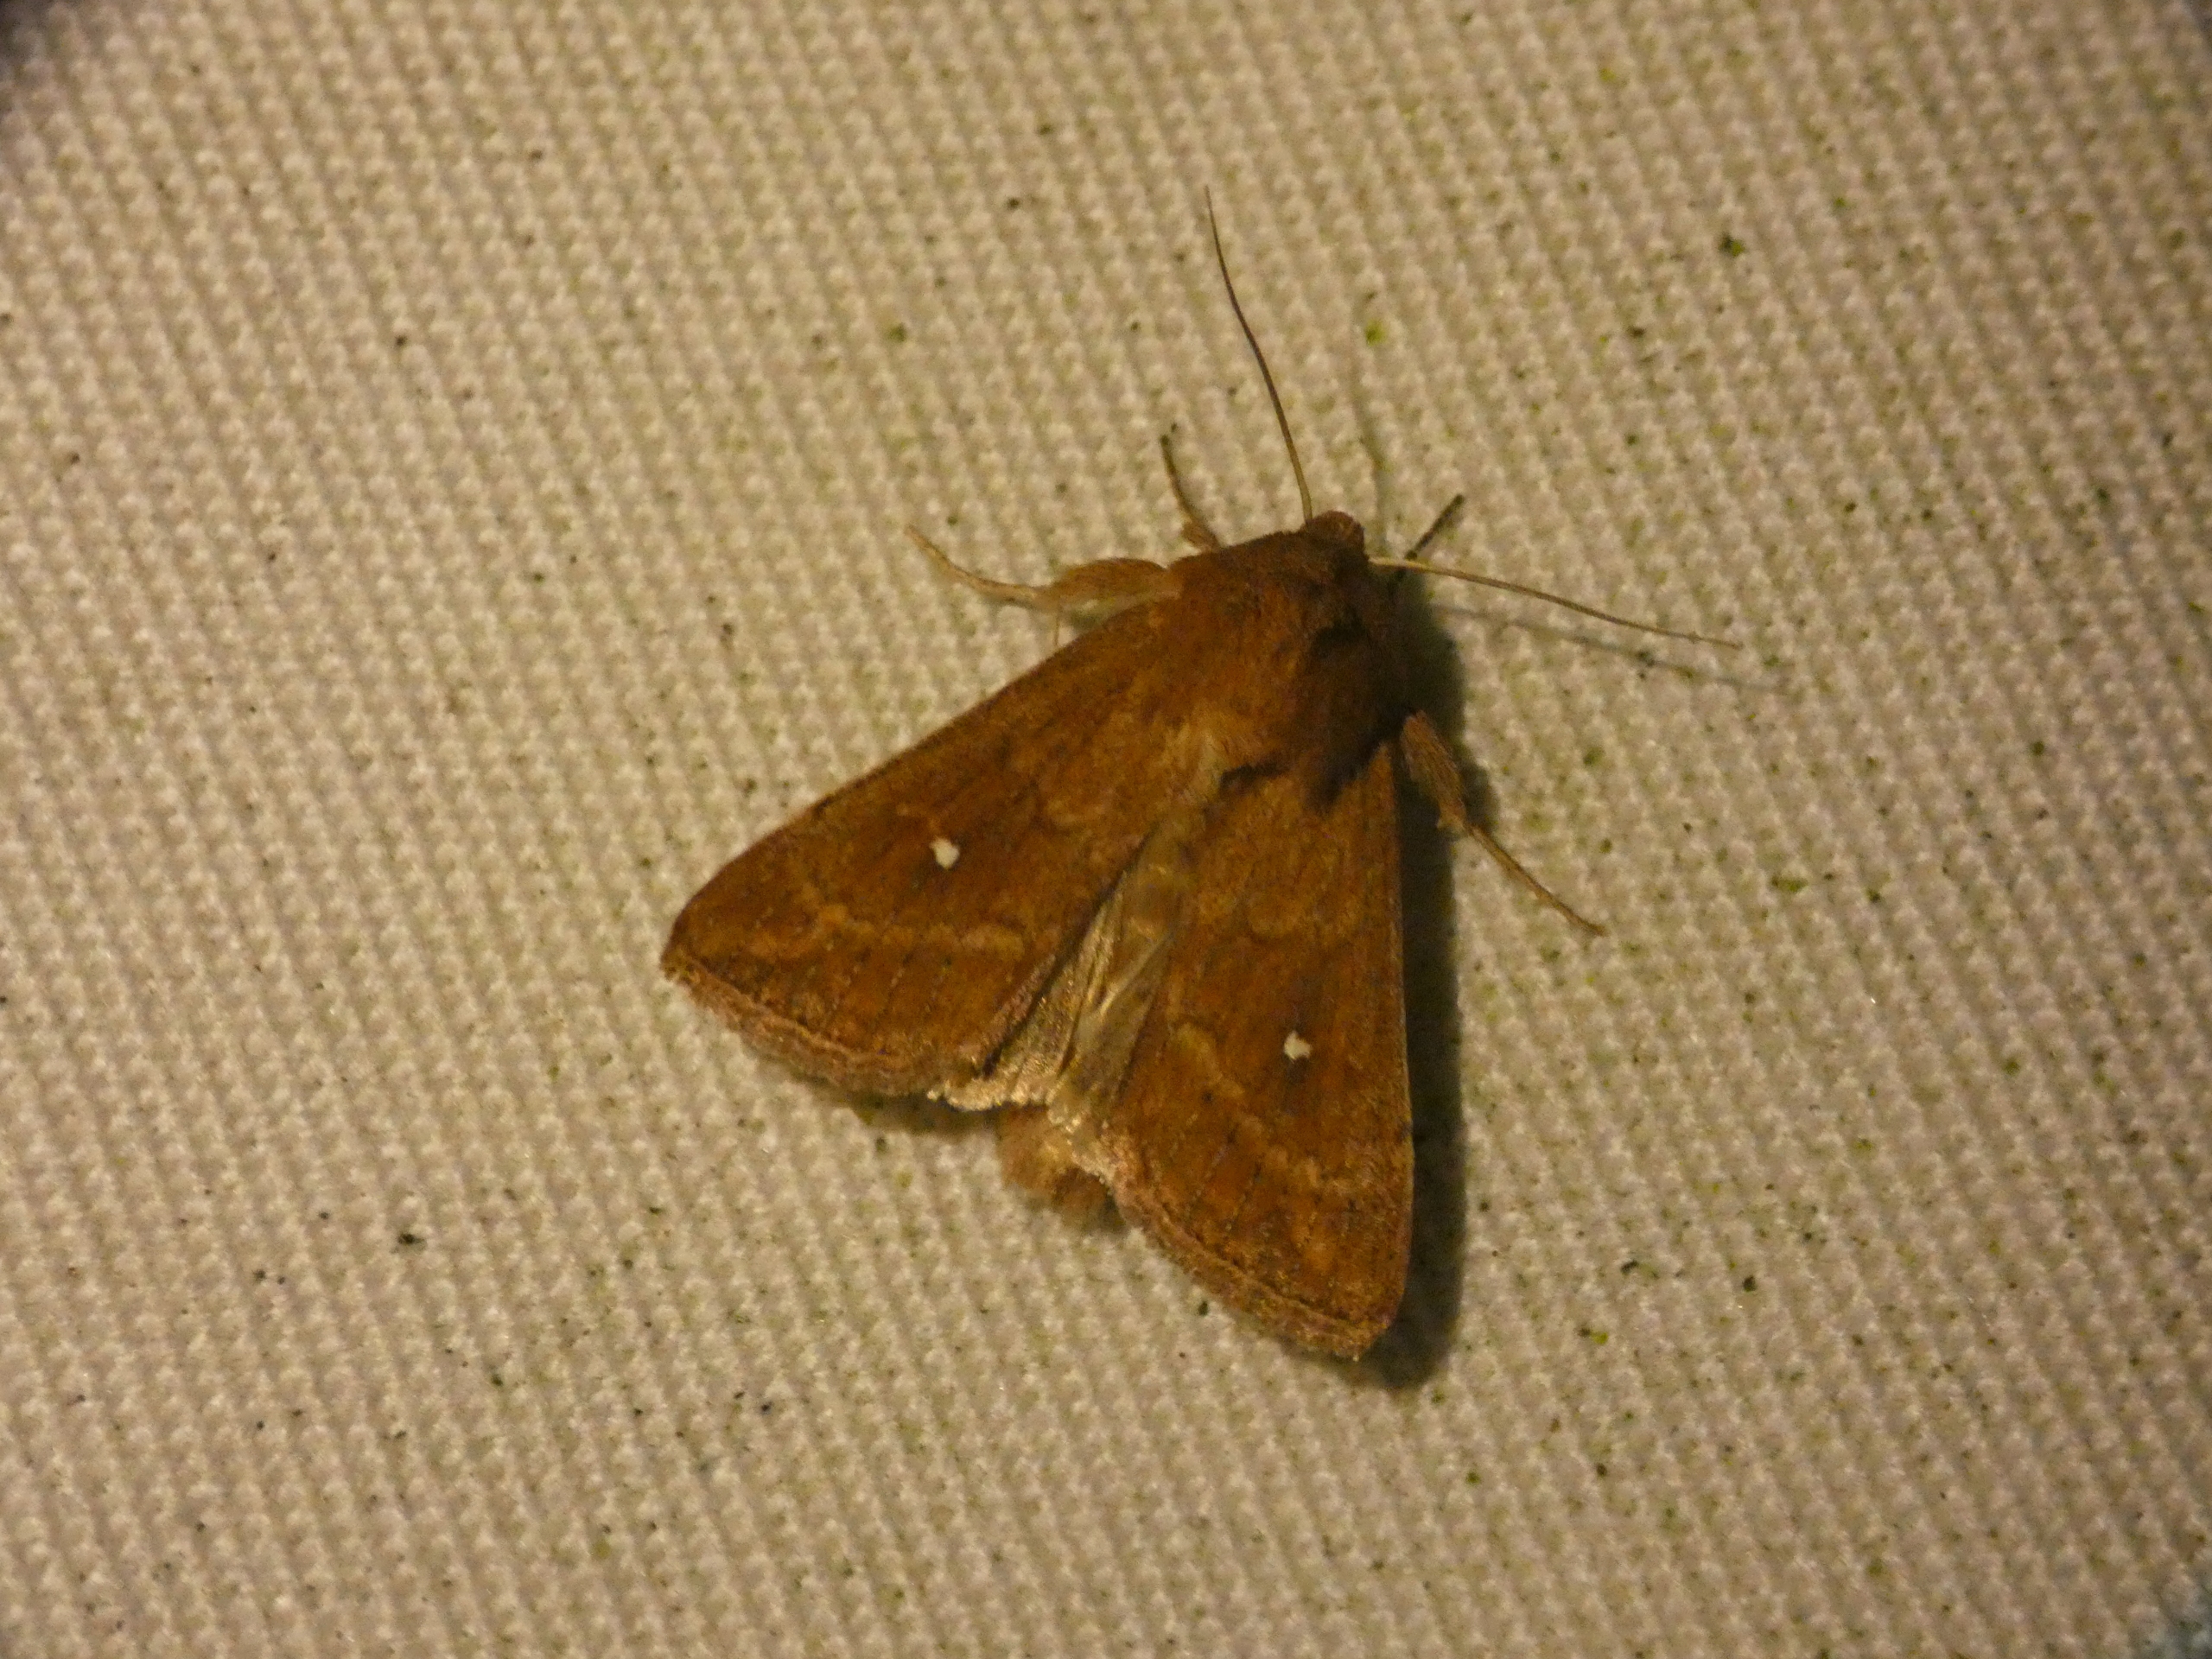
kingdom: Animalia
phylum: Arthropoda
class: Insecta
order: Lepidoptera
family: Noctuidae
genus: Mythimna
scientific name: Mythimna albipuncta
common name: Hvid-punkt græsugle
